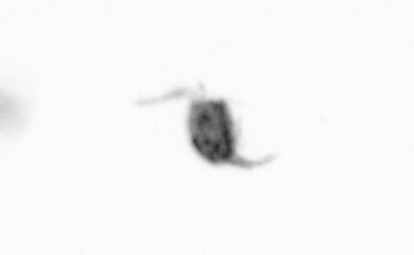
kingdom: Animalia
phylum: Arthropoda
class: Copepoda
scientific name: Copepoda
